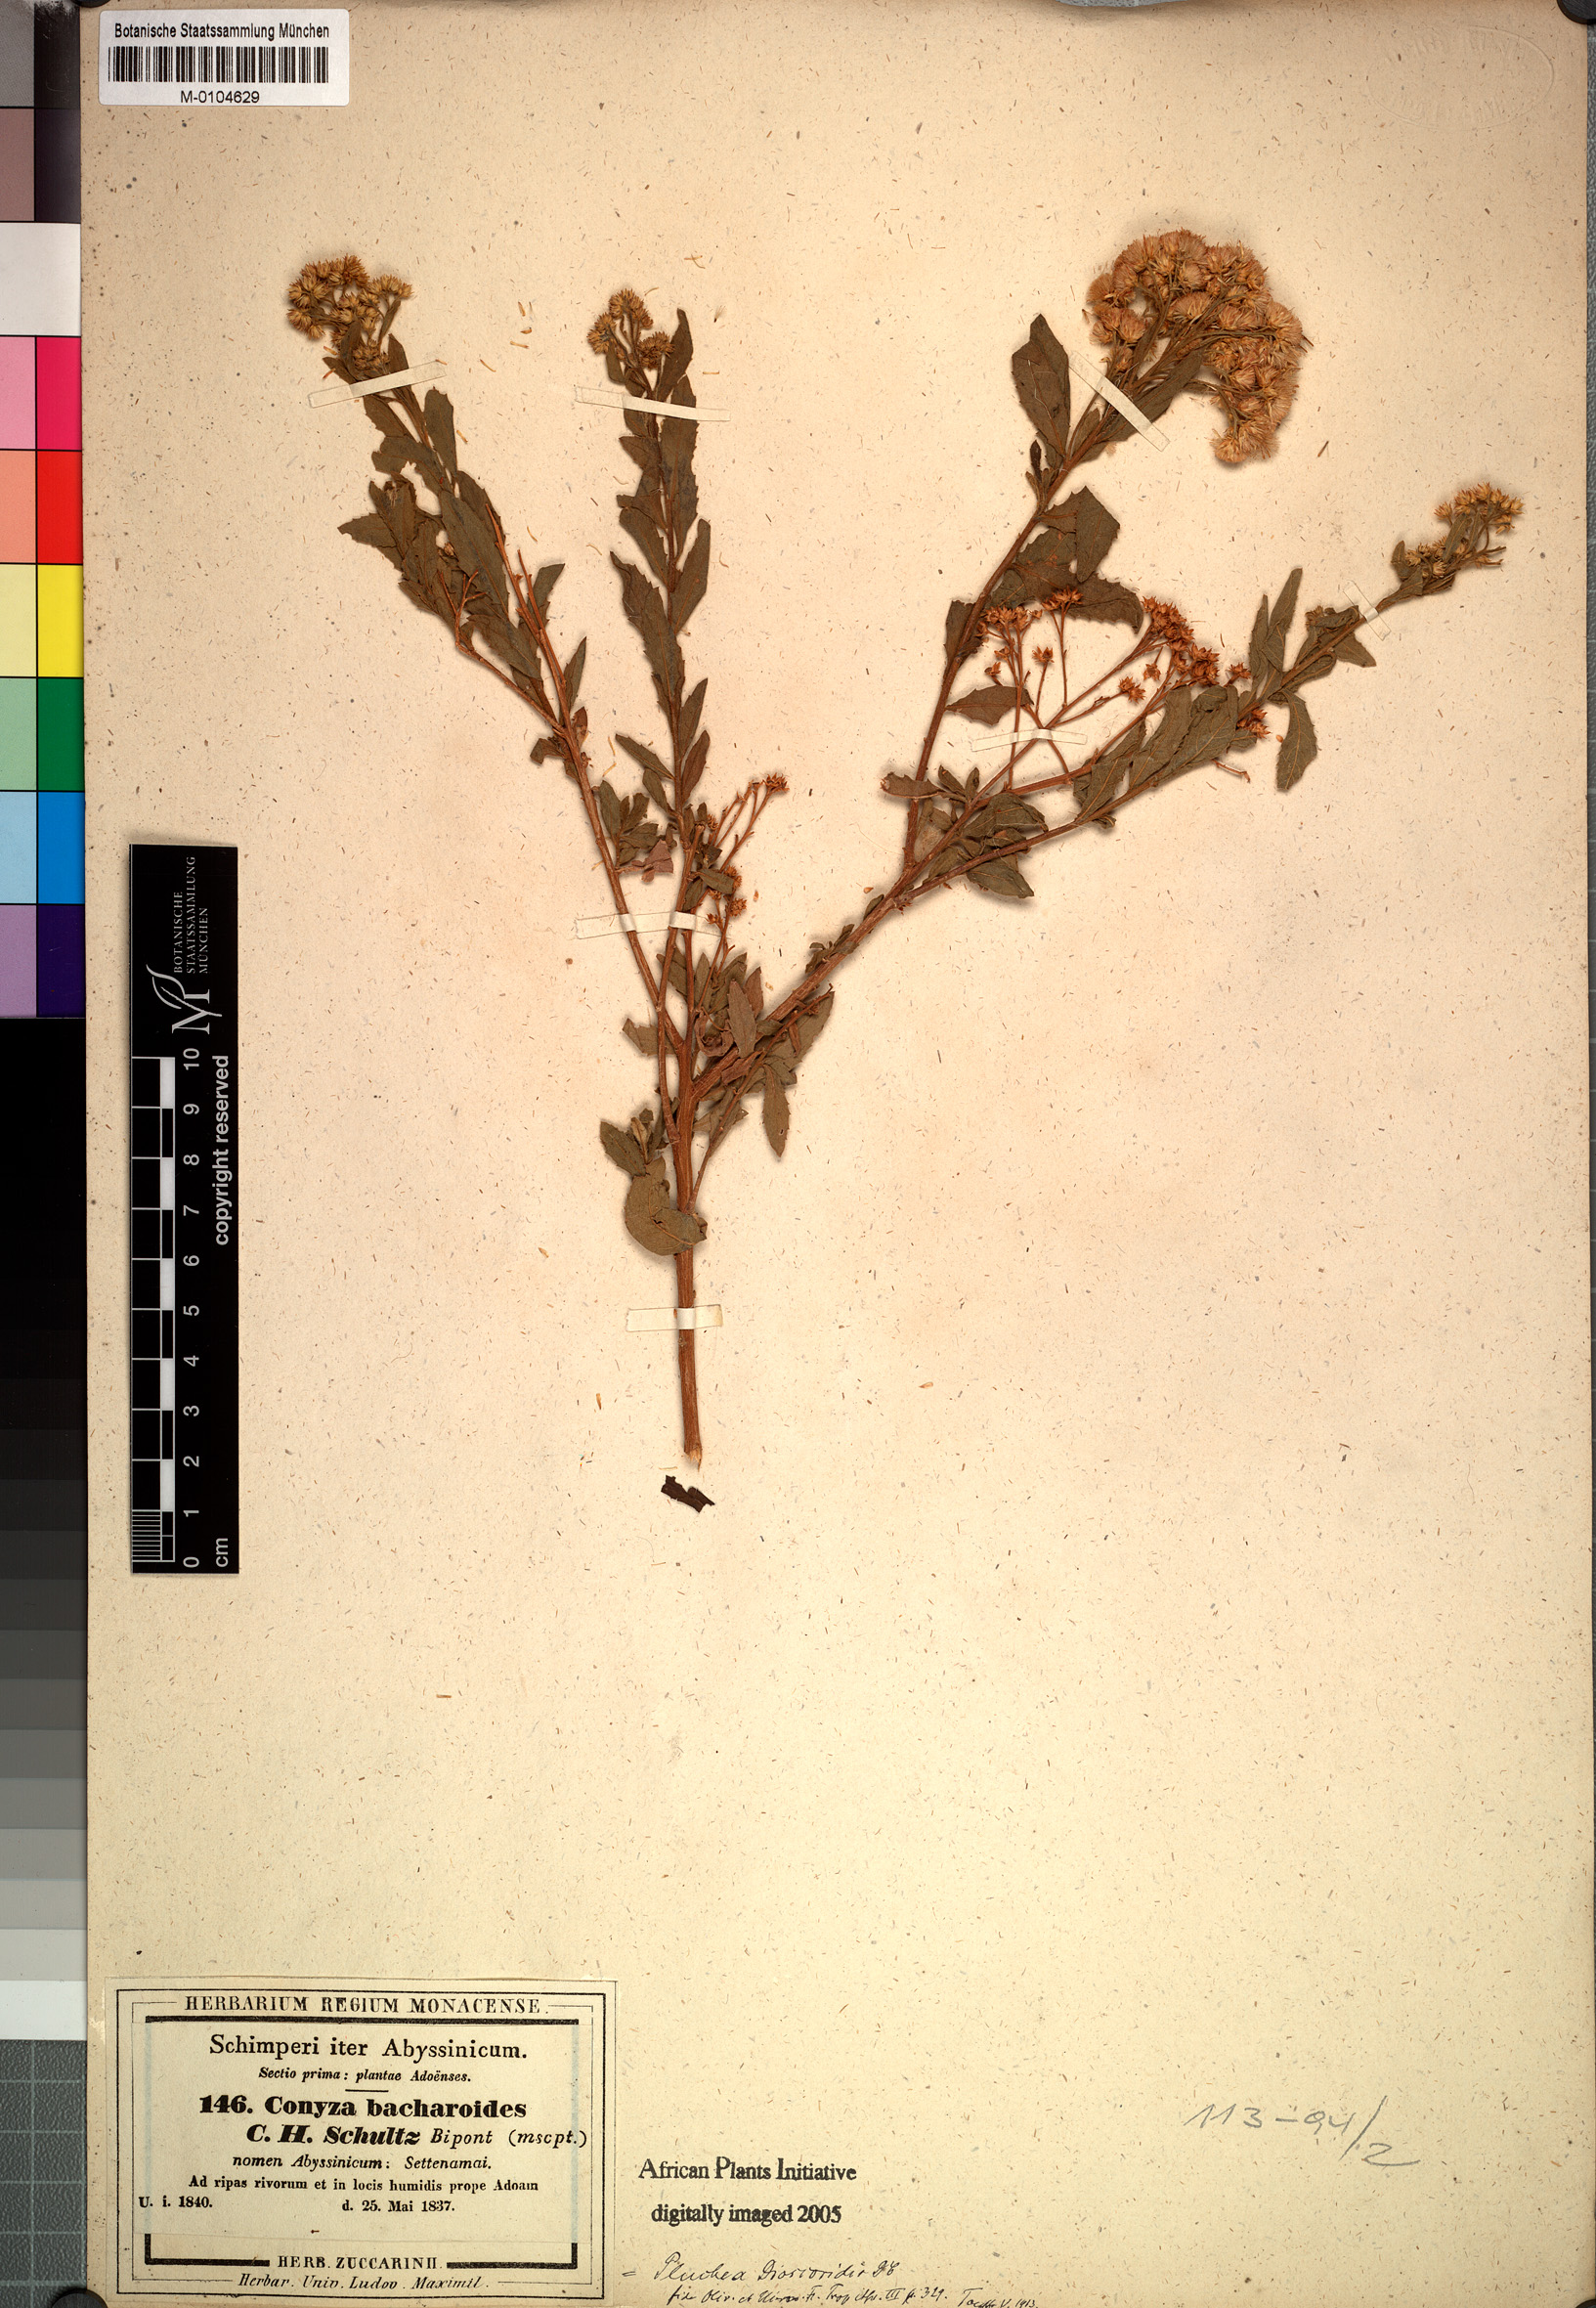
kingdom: Plantae
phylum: Tracheophyta
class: Magnoliopsida
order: Asterales
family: Asteraceae
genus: Pluchea
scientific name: Pluchea dioscoridis
